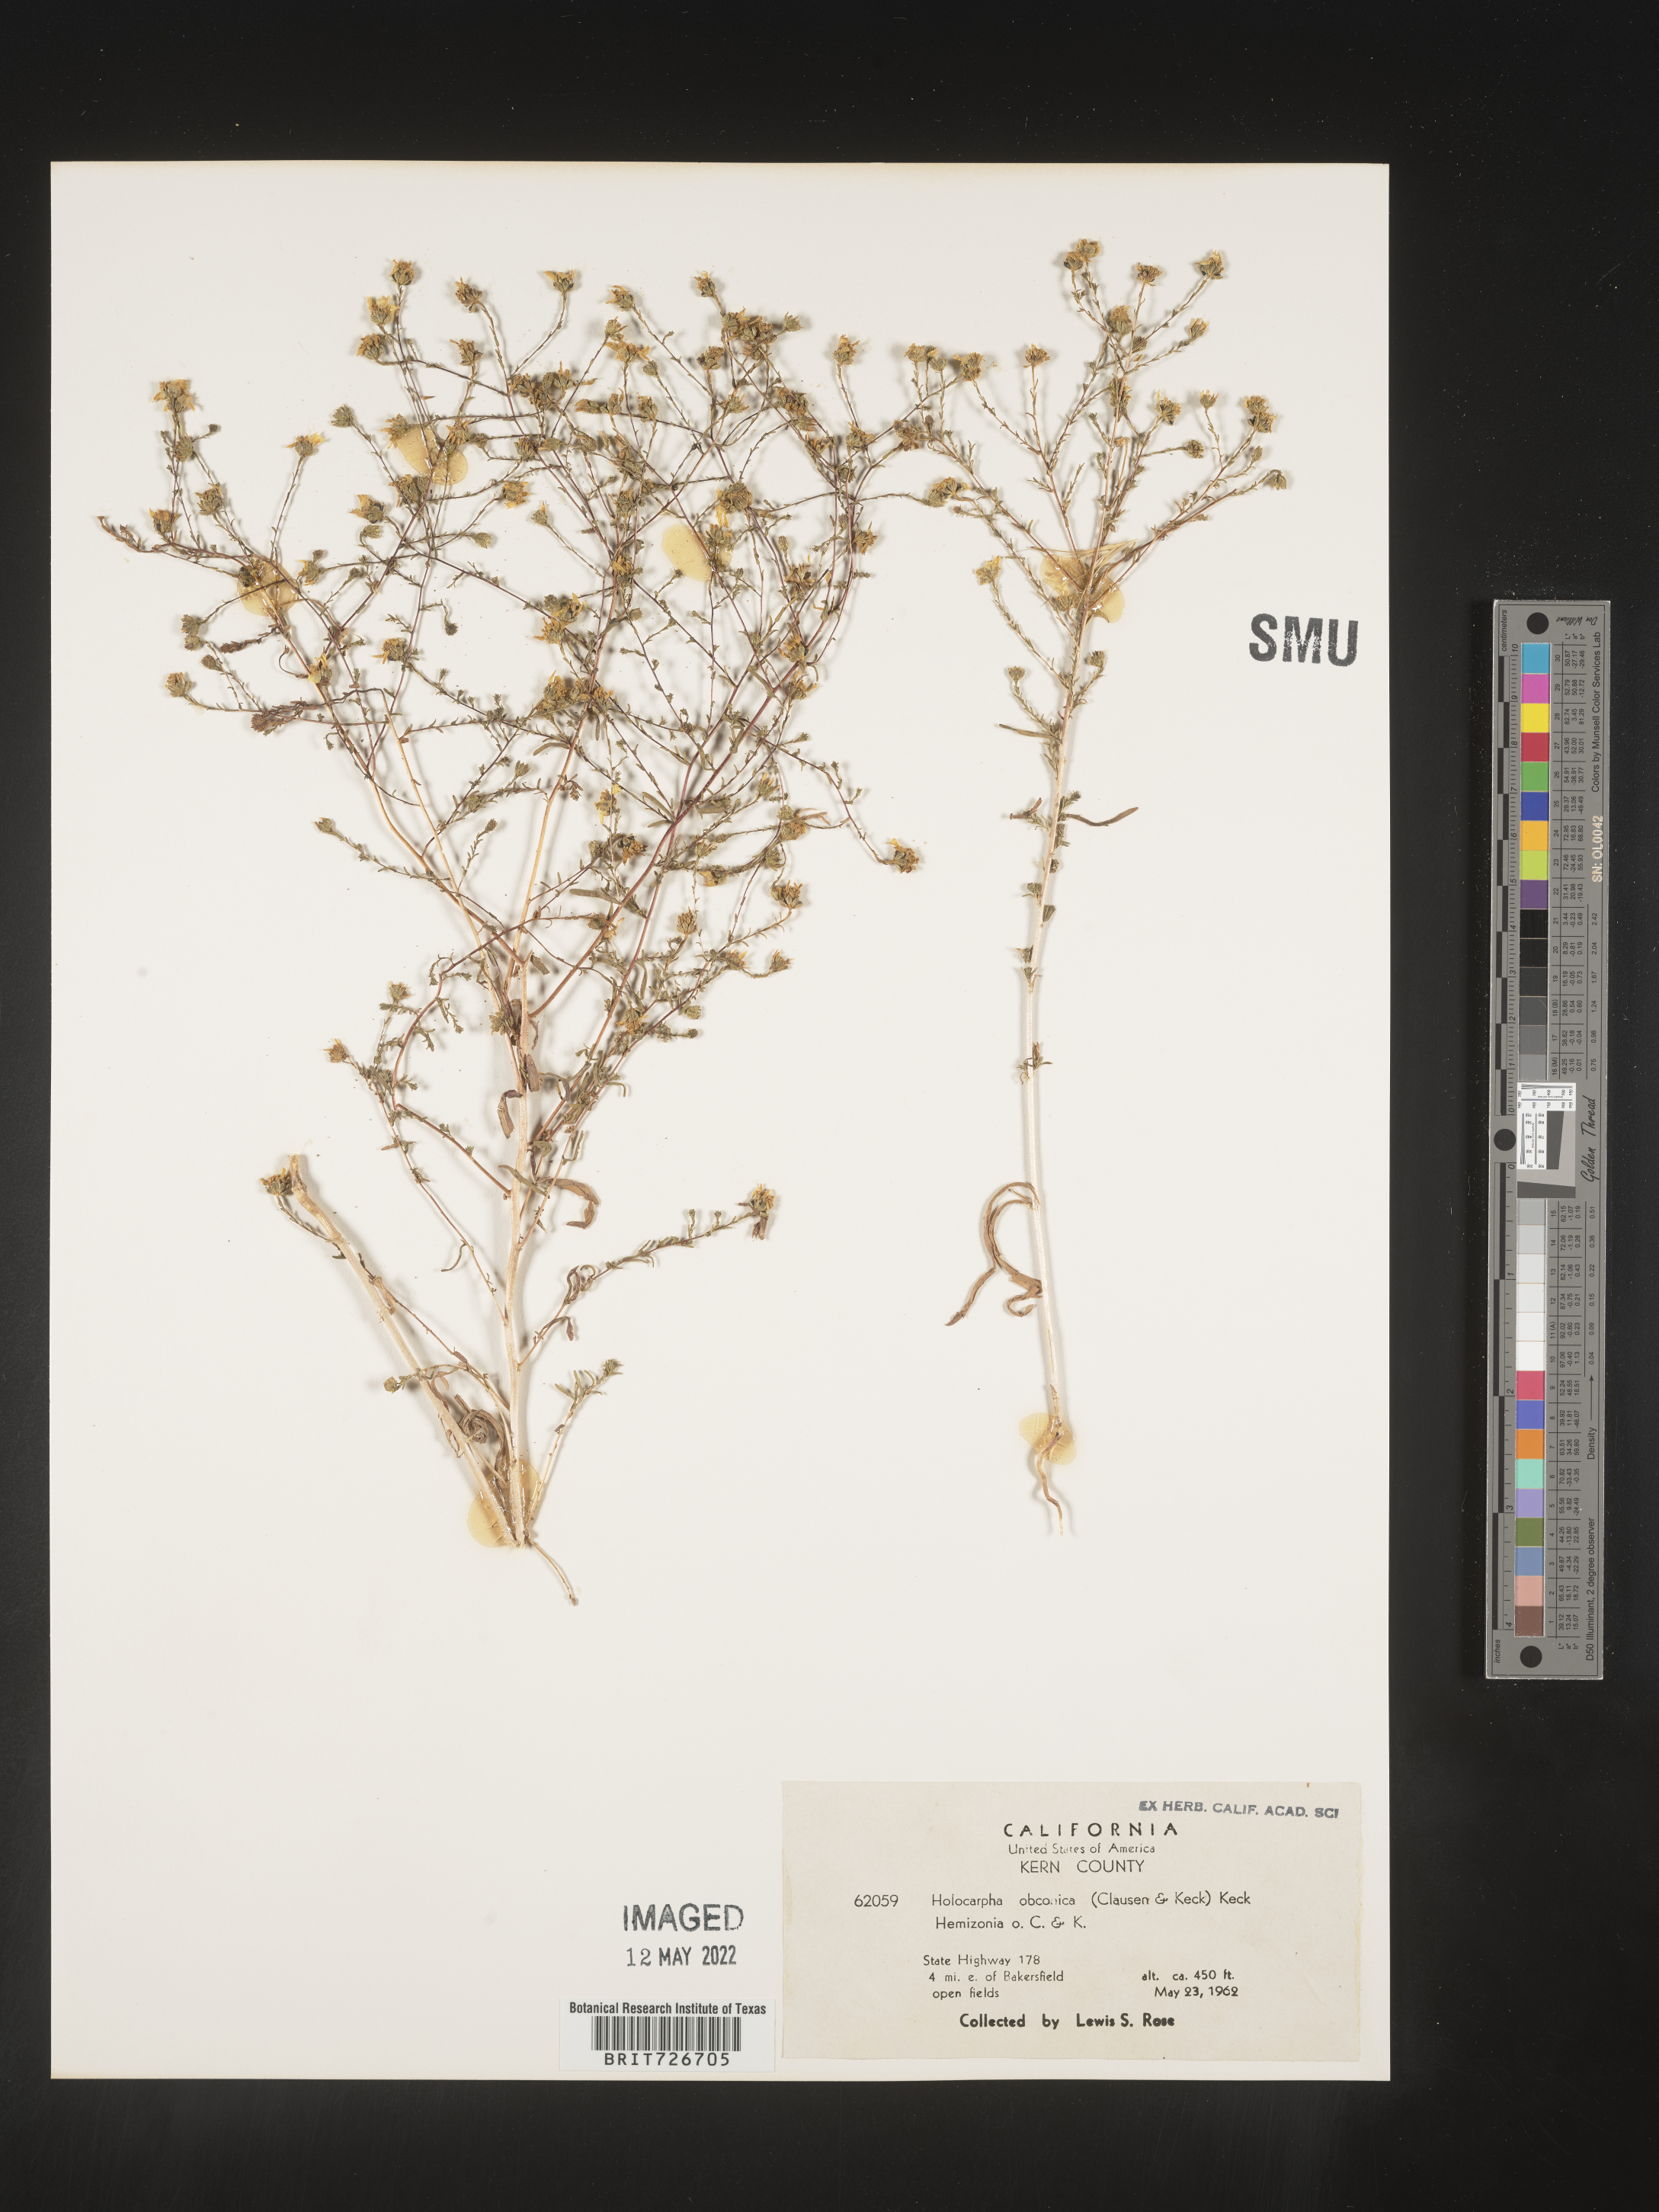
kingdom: Plantae
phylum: Tracheophyta
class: Magnoliopsida
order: Asterales
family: Asteraceae
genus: Holocarpha
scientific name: Holocarpha
